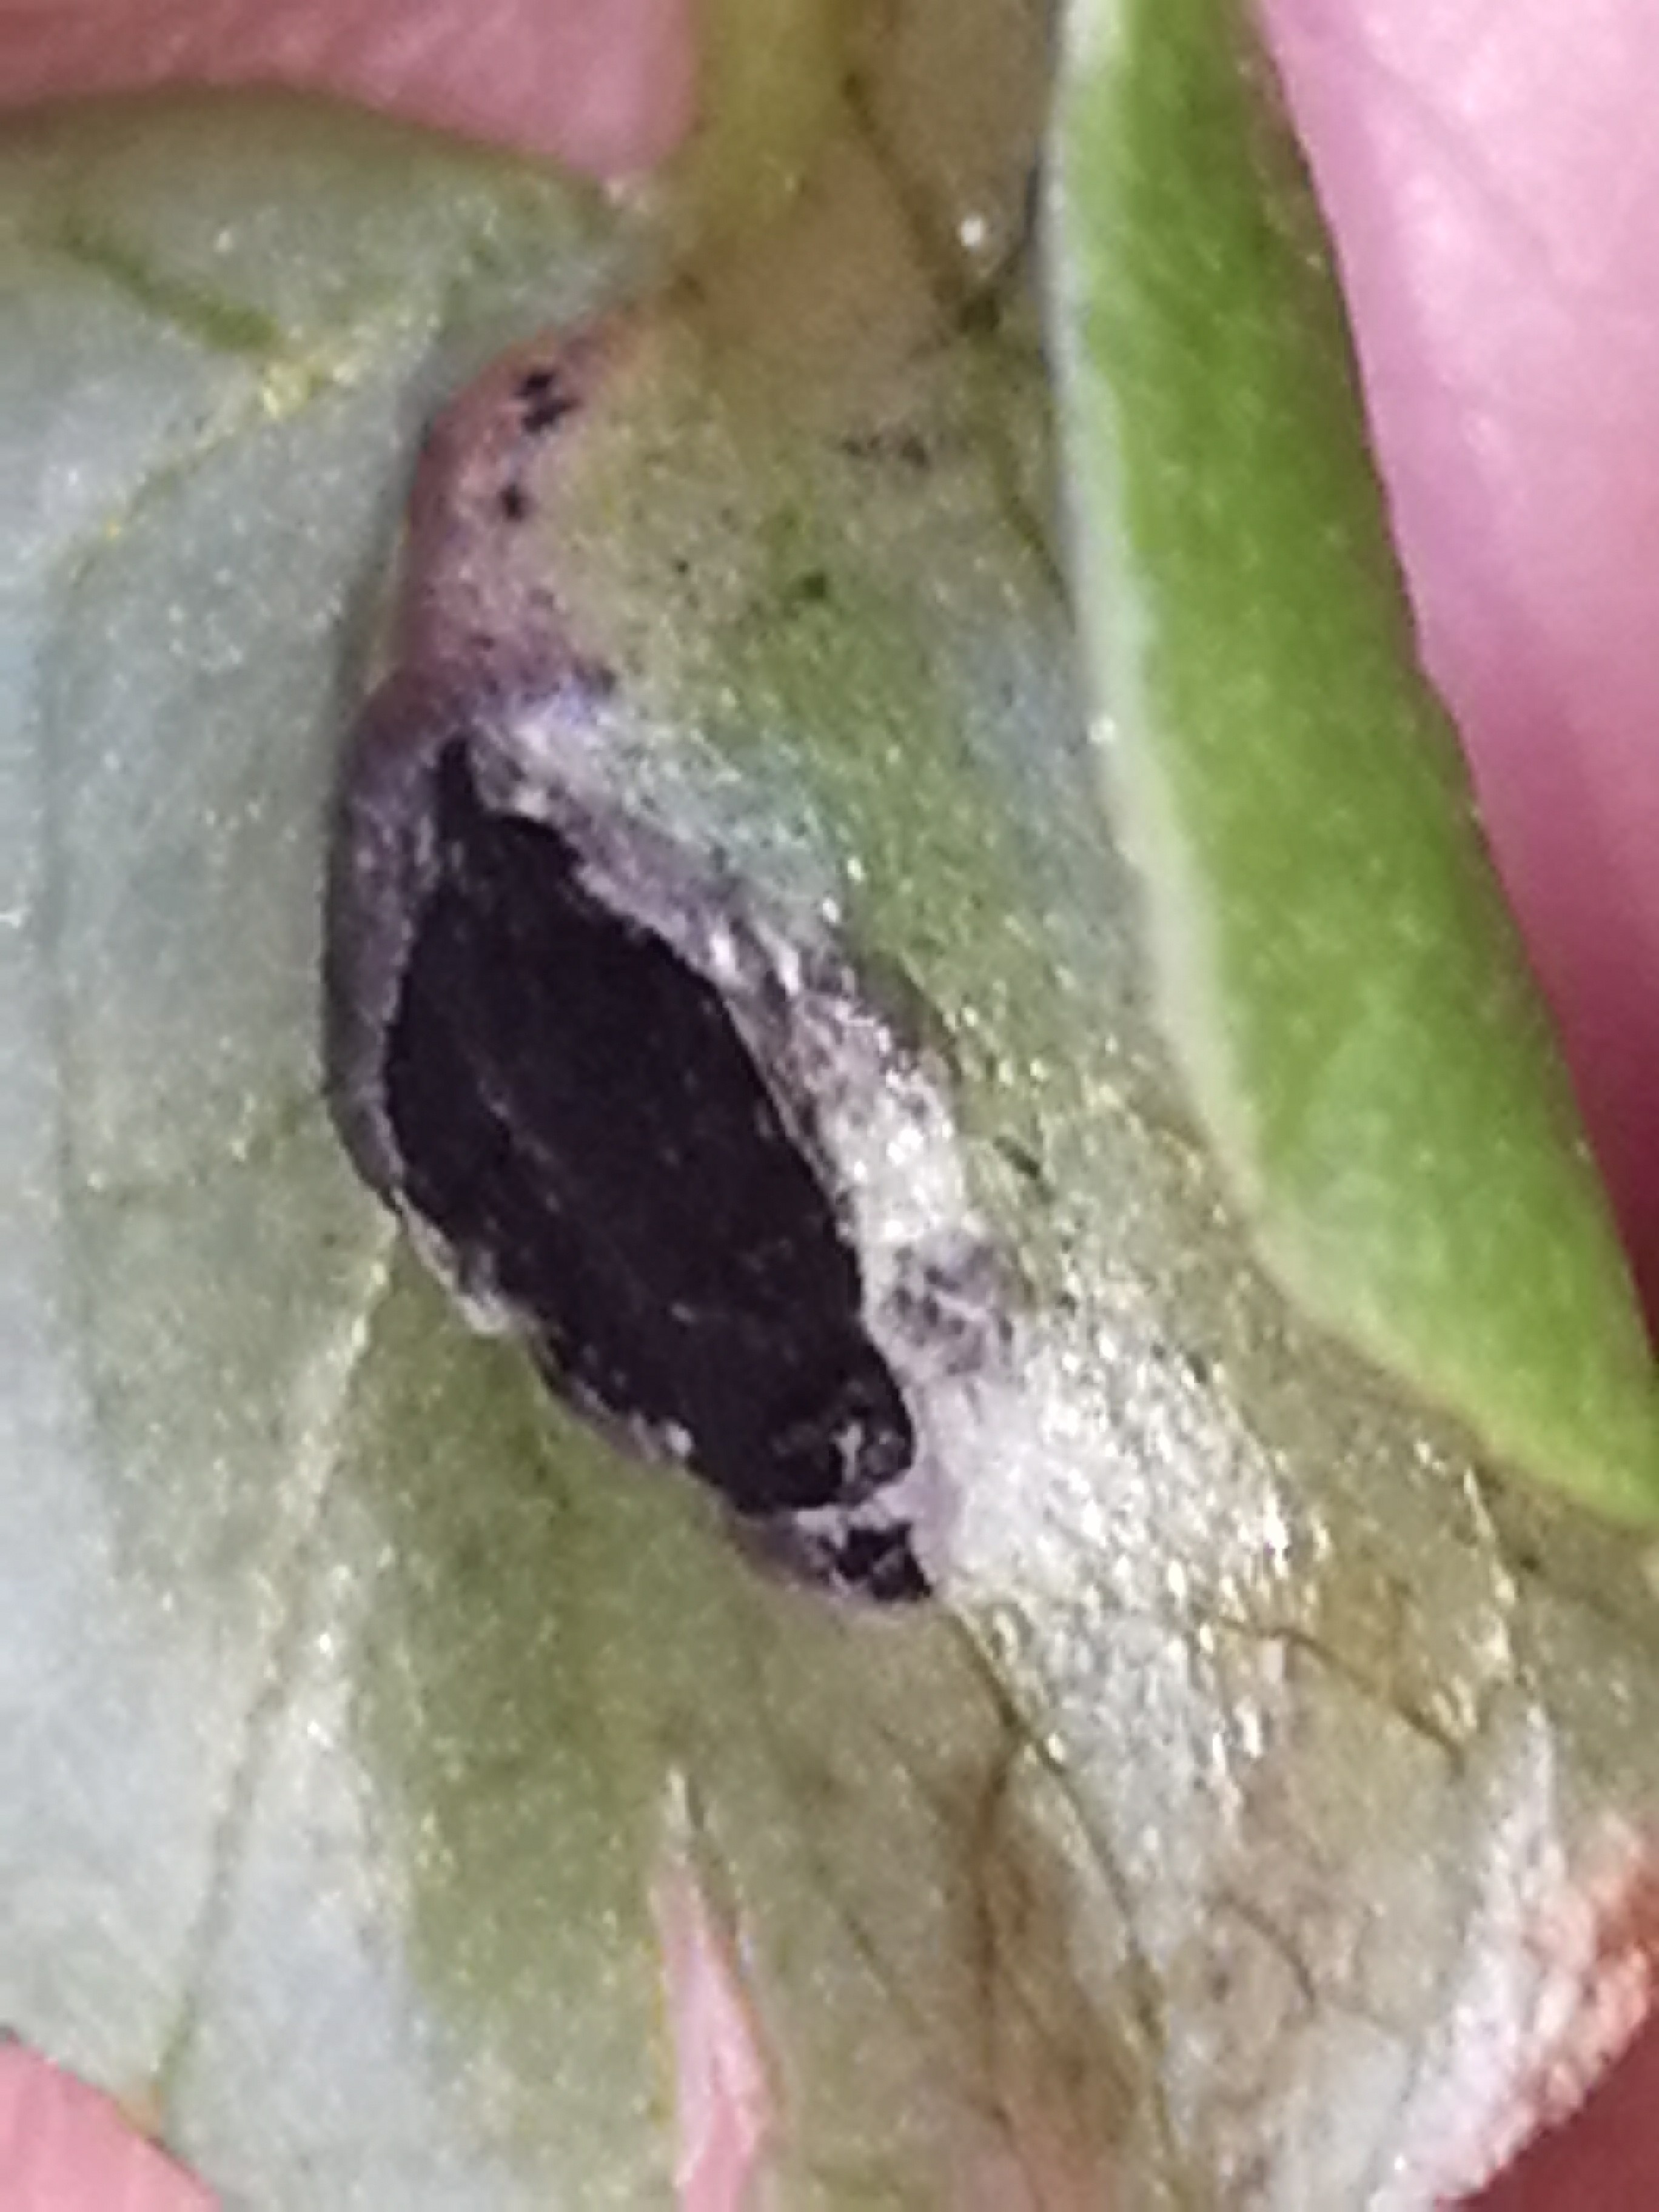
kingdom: Fungi
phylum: Basidiomycota
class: Ustilaginomycetes
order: Urocystidales
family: Urocystidaceae
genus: Urocystis
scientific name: Urocystis ficariae
